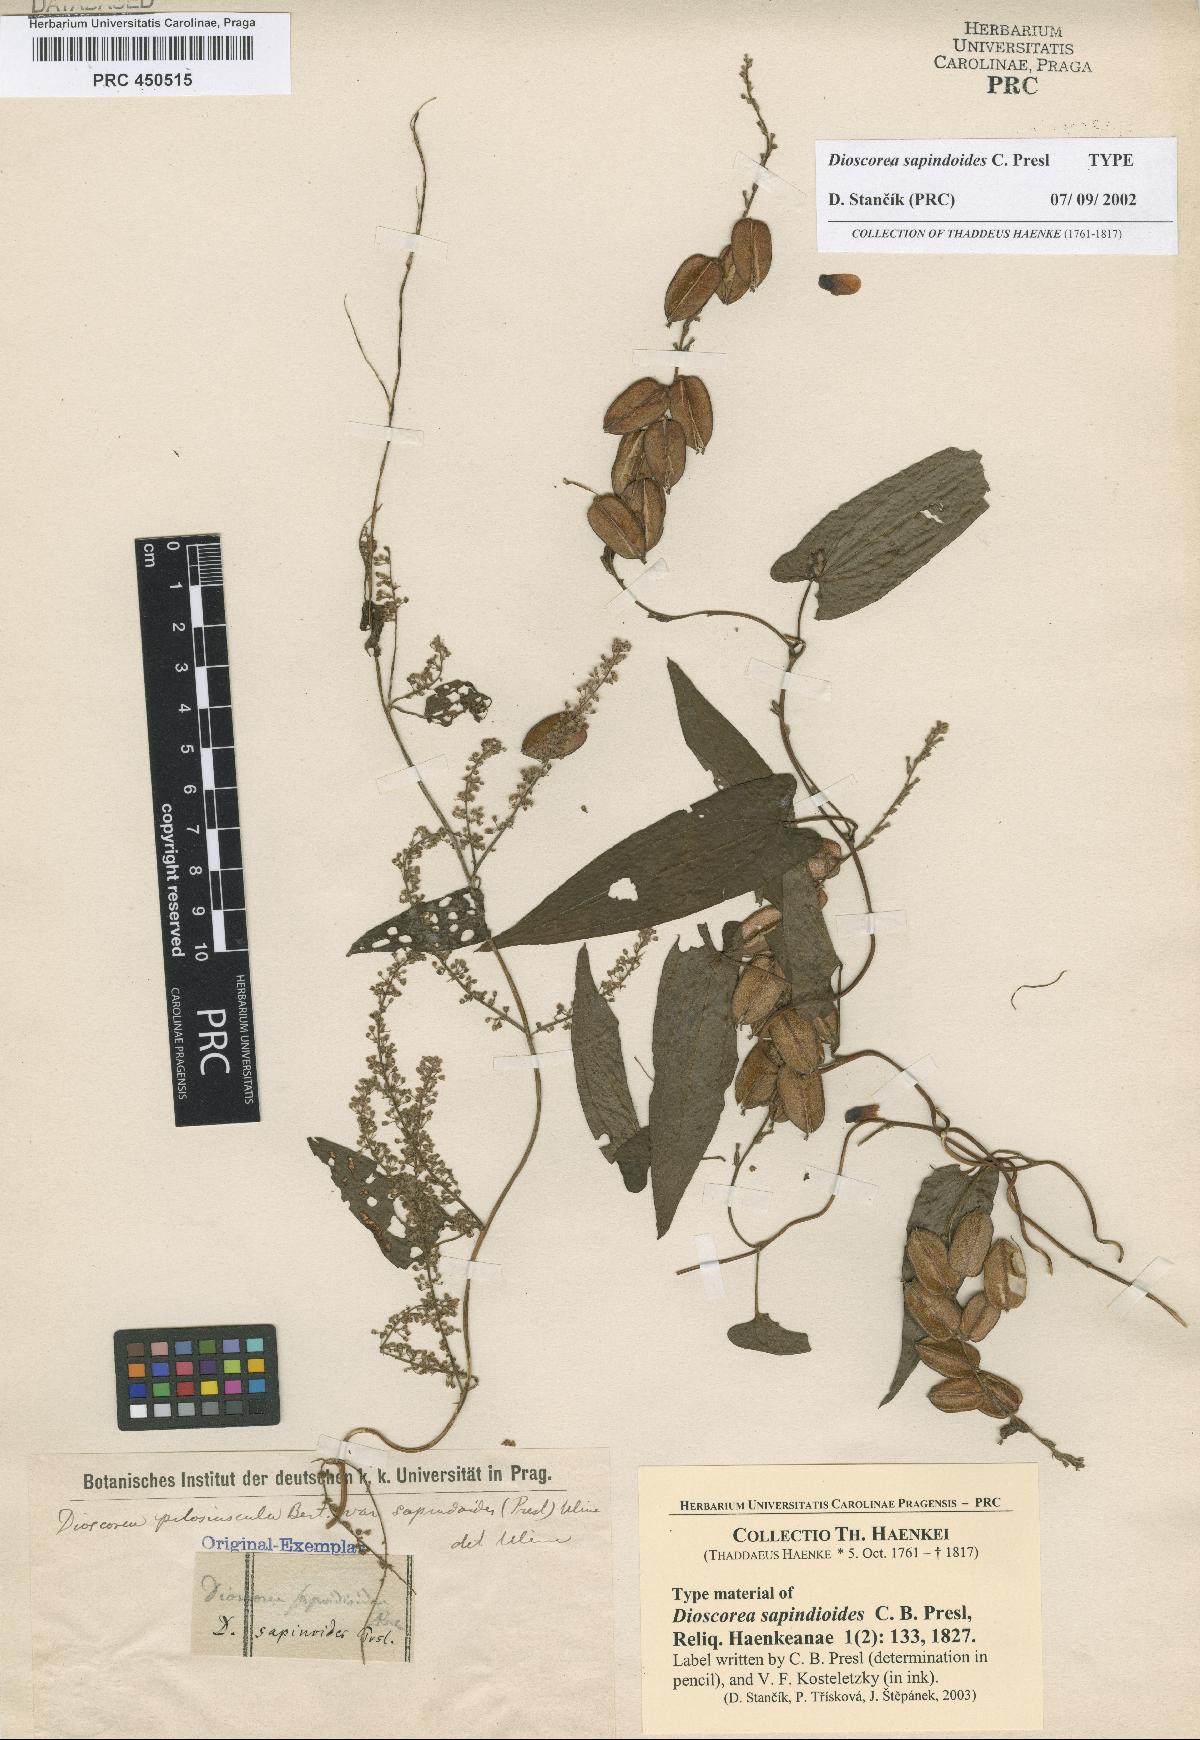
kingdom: Plantae
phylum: Tracheophyta
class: Liliopsida
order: Dioscoreales
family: Dioscoreaceae
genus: Dioscorea
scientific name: Dioscorea pilosiuscula
